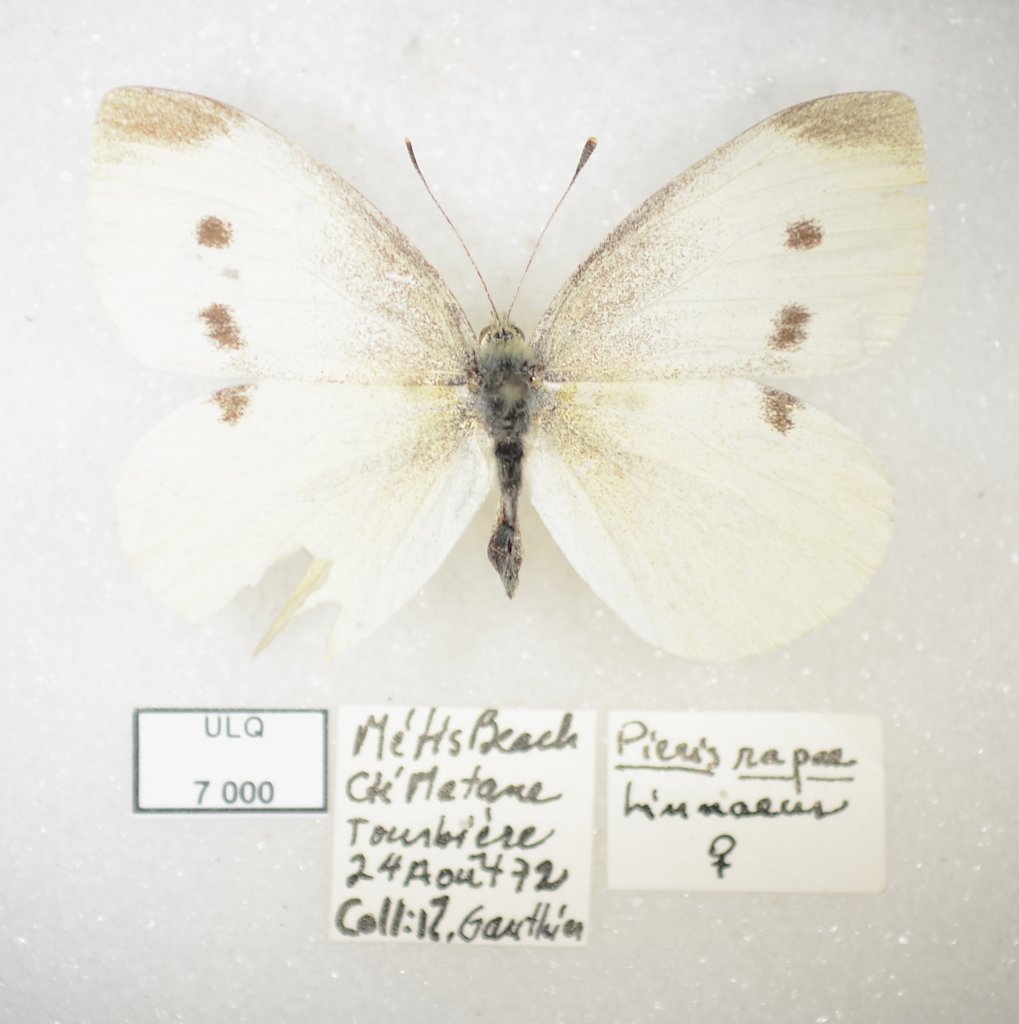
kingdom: Animalia
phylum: Arthropoda
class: Insecta
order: Lepidoptera
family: Pieridae
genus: Pieris
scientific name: Pieris rapae
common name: Cabbage White
